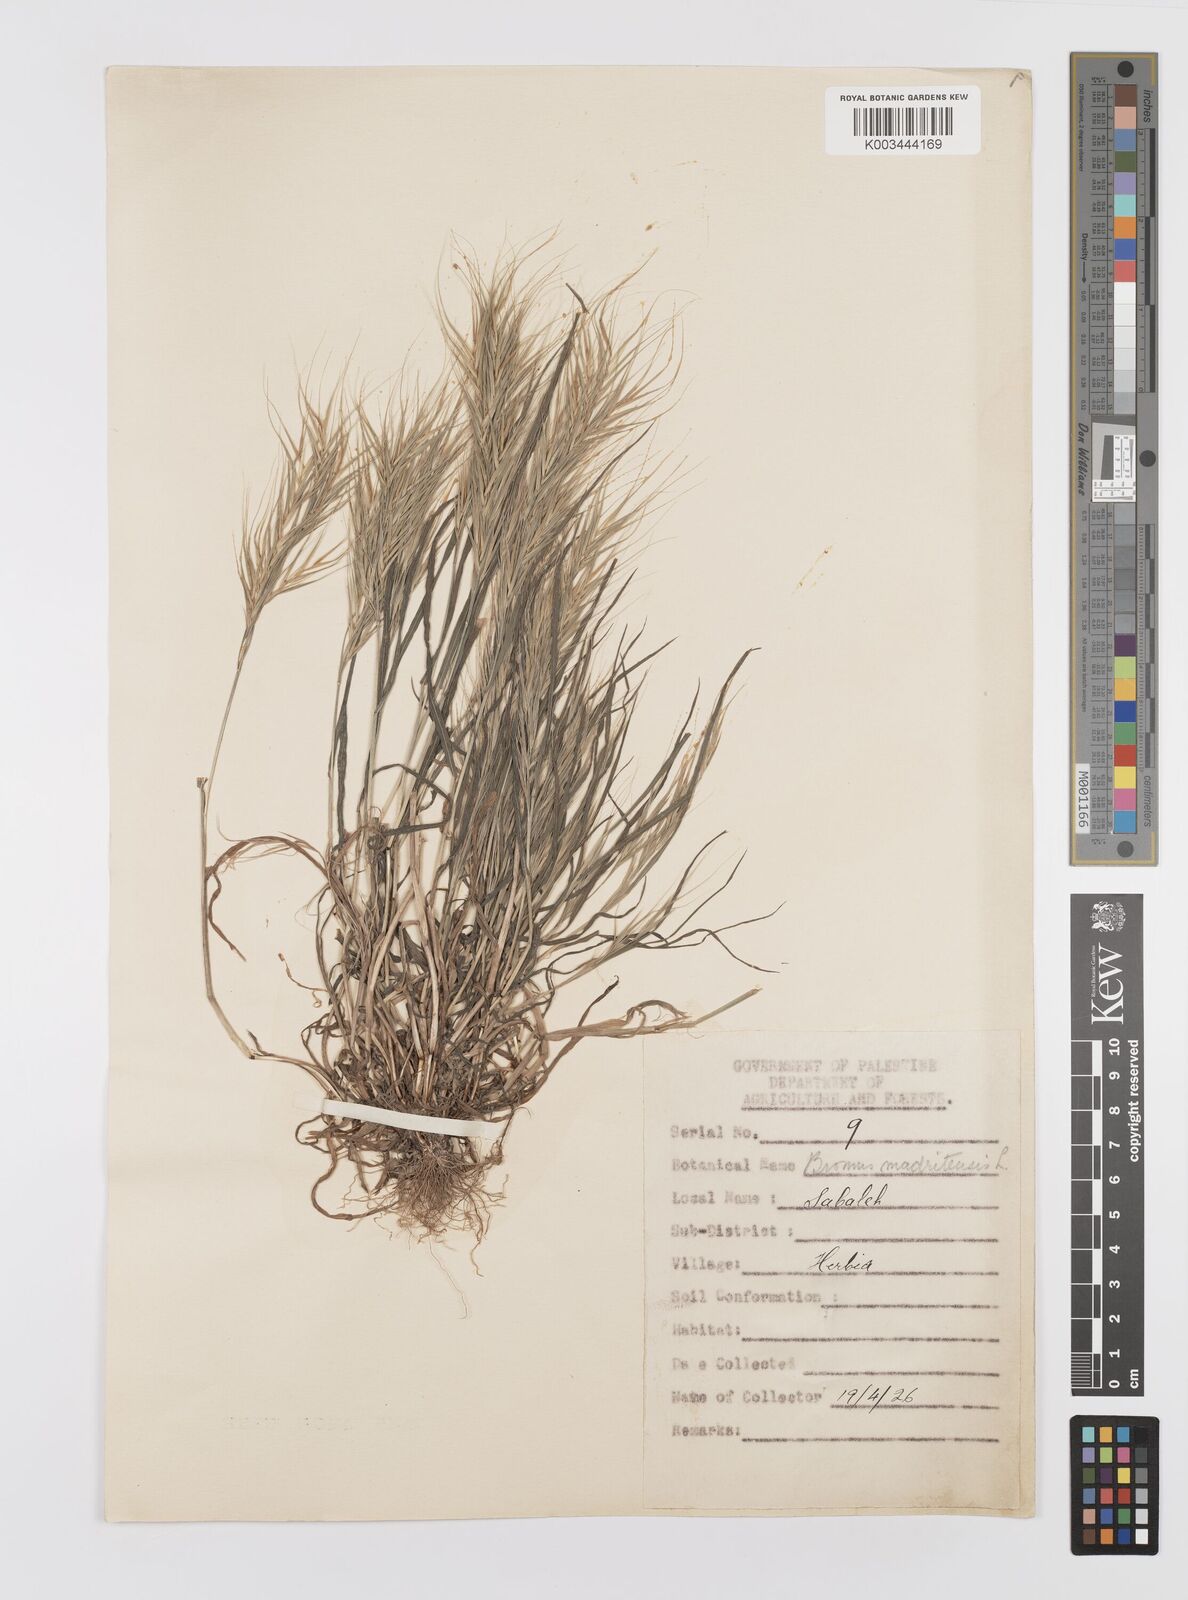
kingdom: Plantae
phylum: Tracheophyta
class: Liliopsida
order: Poales
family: Poaceae
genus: Bromus
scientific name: Bromus madritensis
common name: Compact brome
